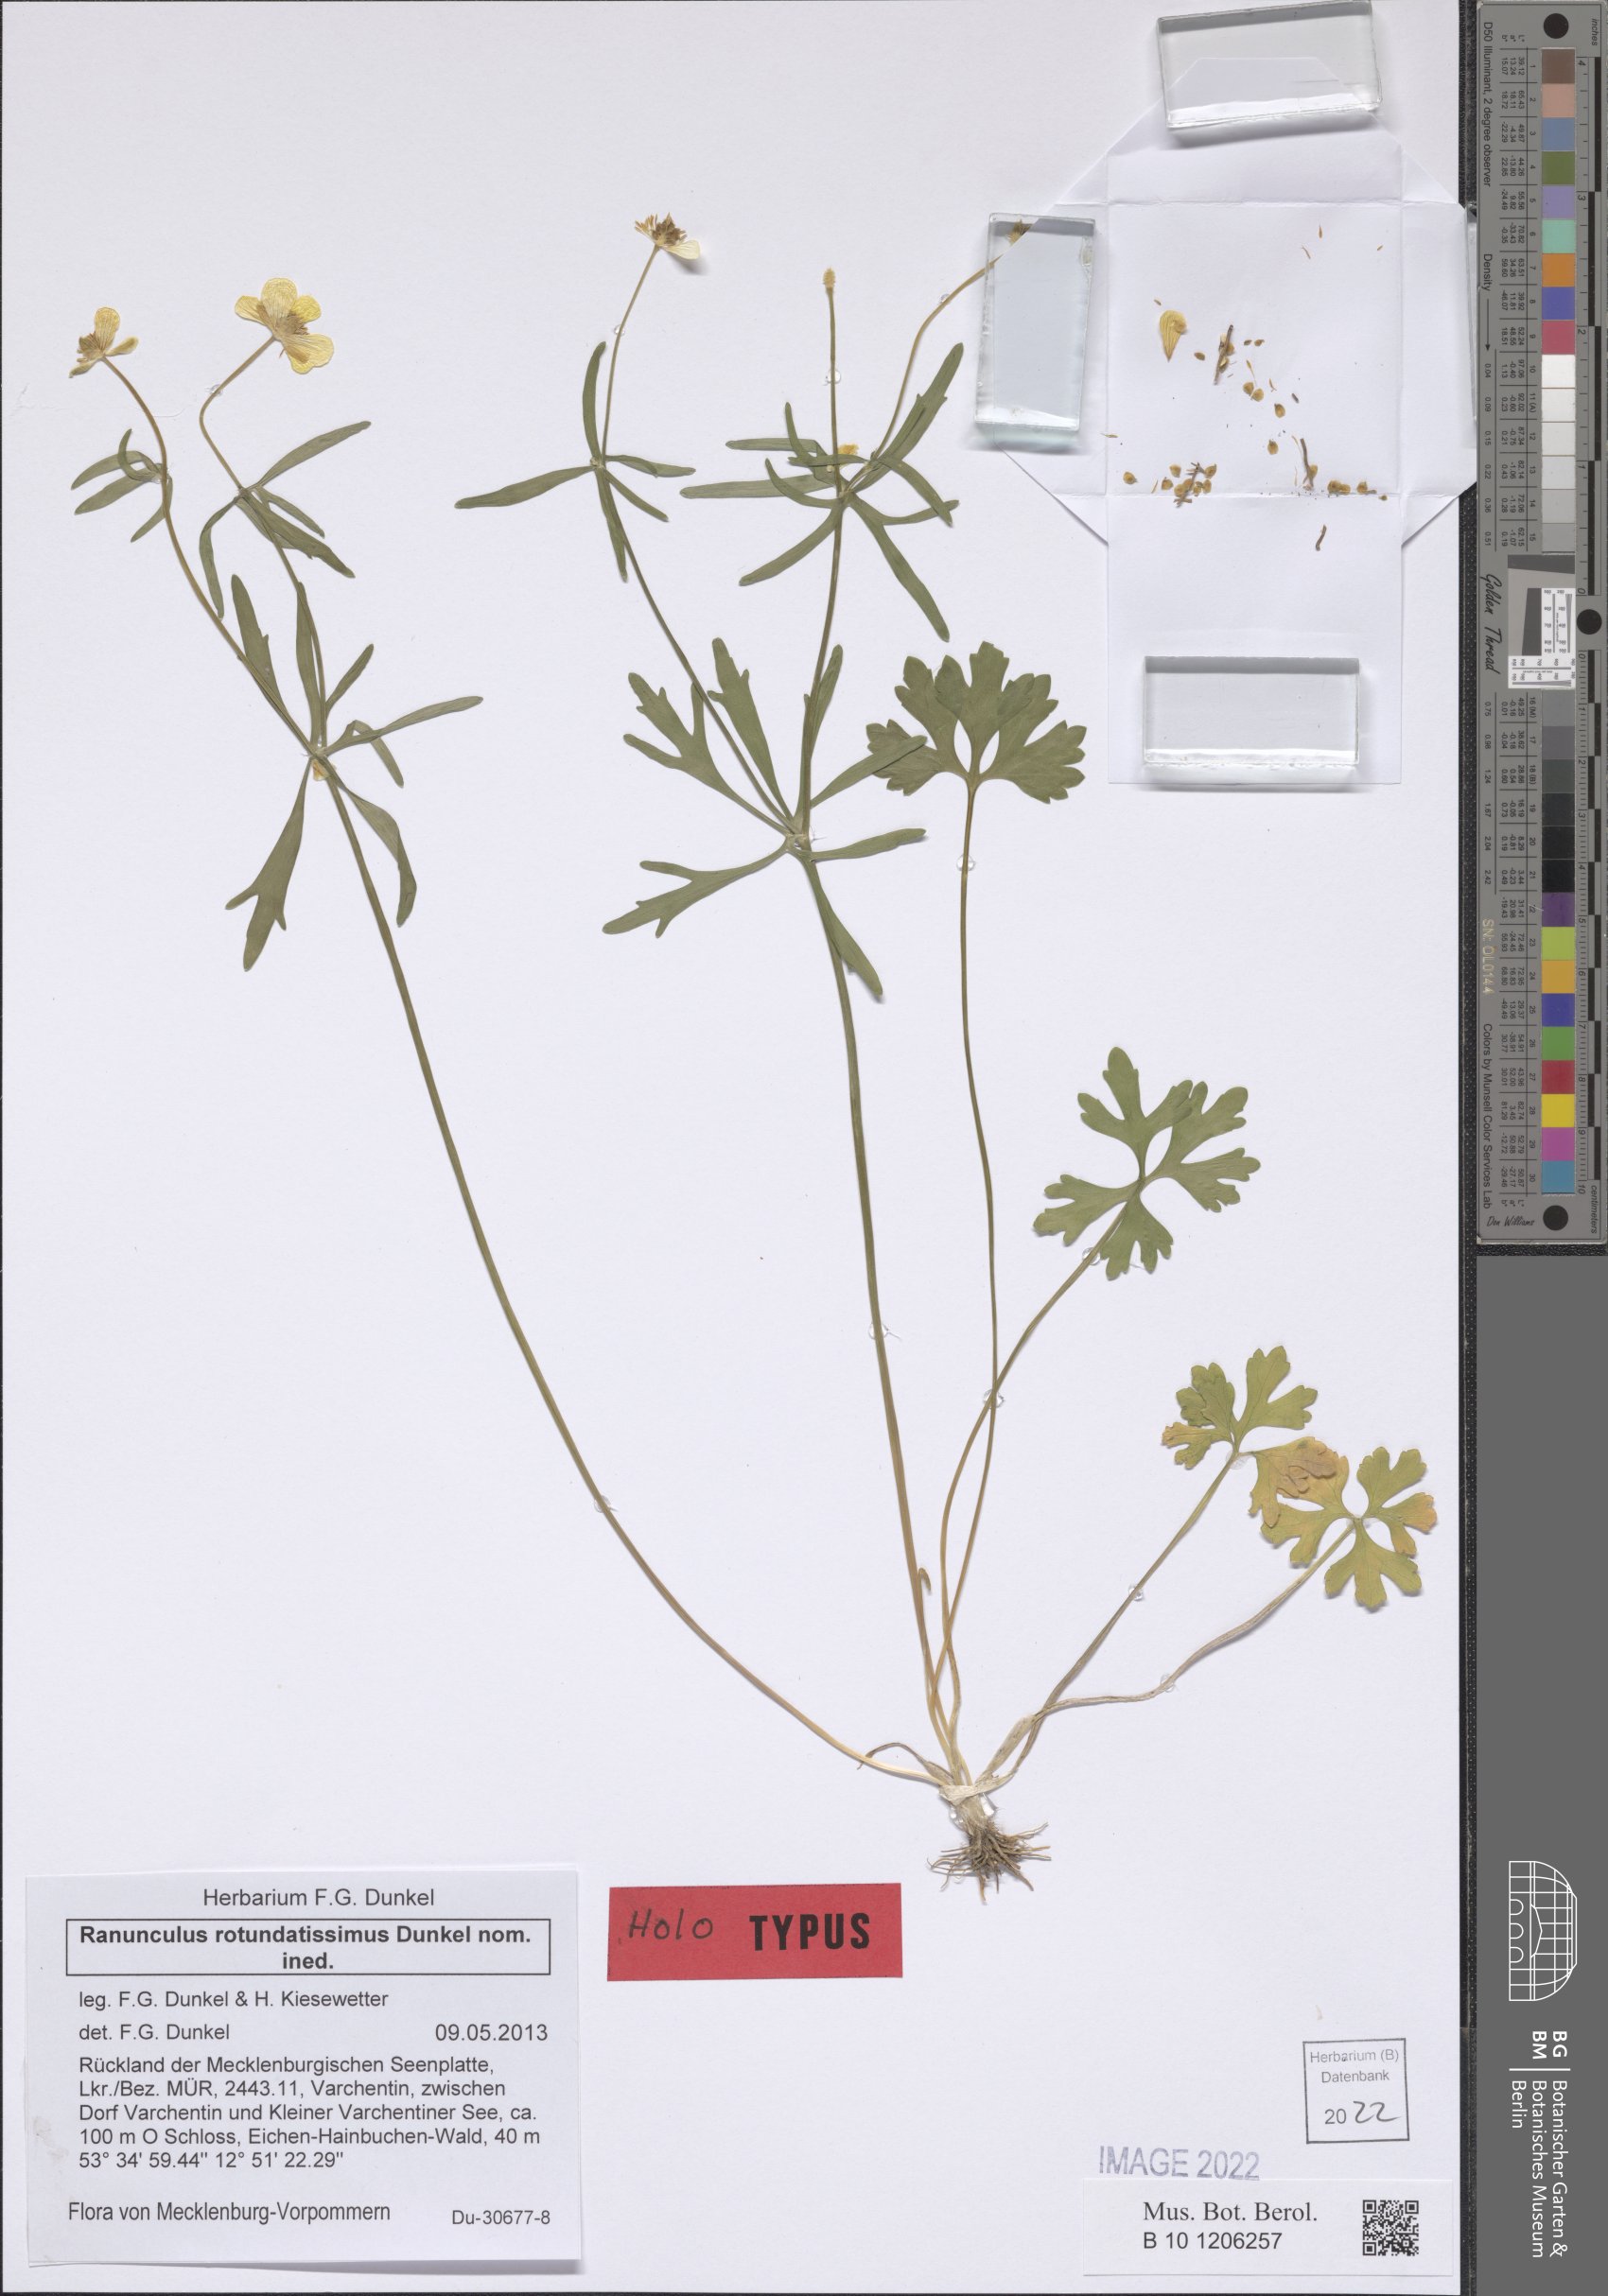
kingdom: Plantae
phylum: Tracheophyta
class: Magnoliopsida
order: Ranunculales
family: Ranunculaceae
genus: Ranunculus
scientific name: Ranunculus rotundatissimus
